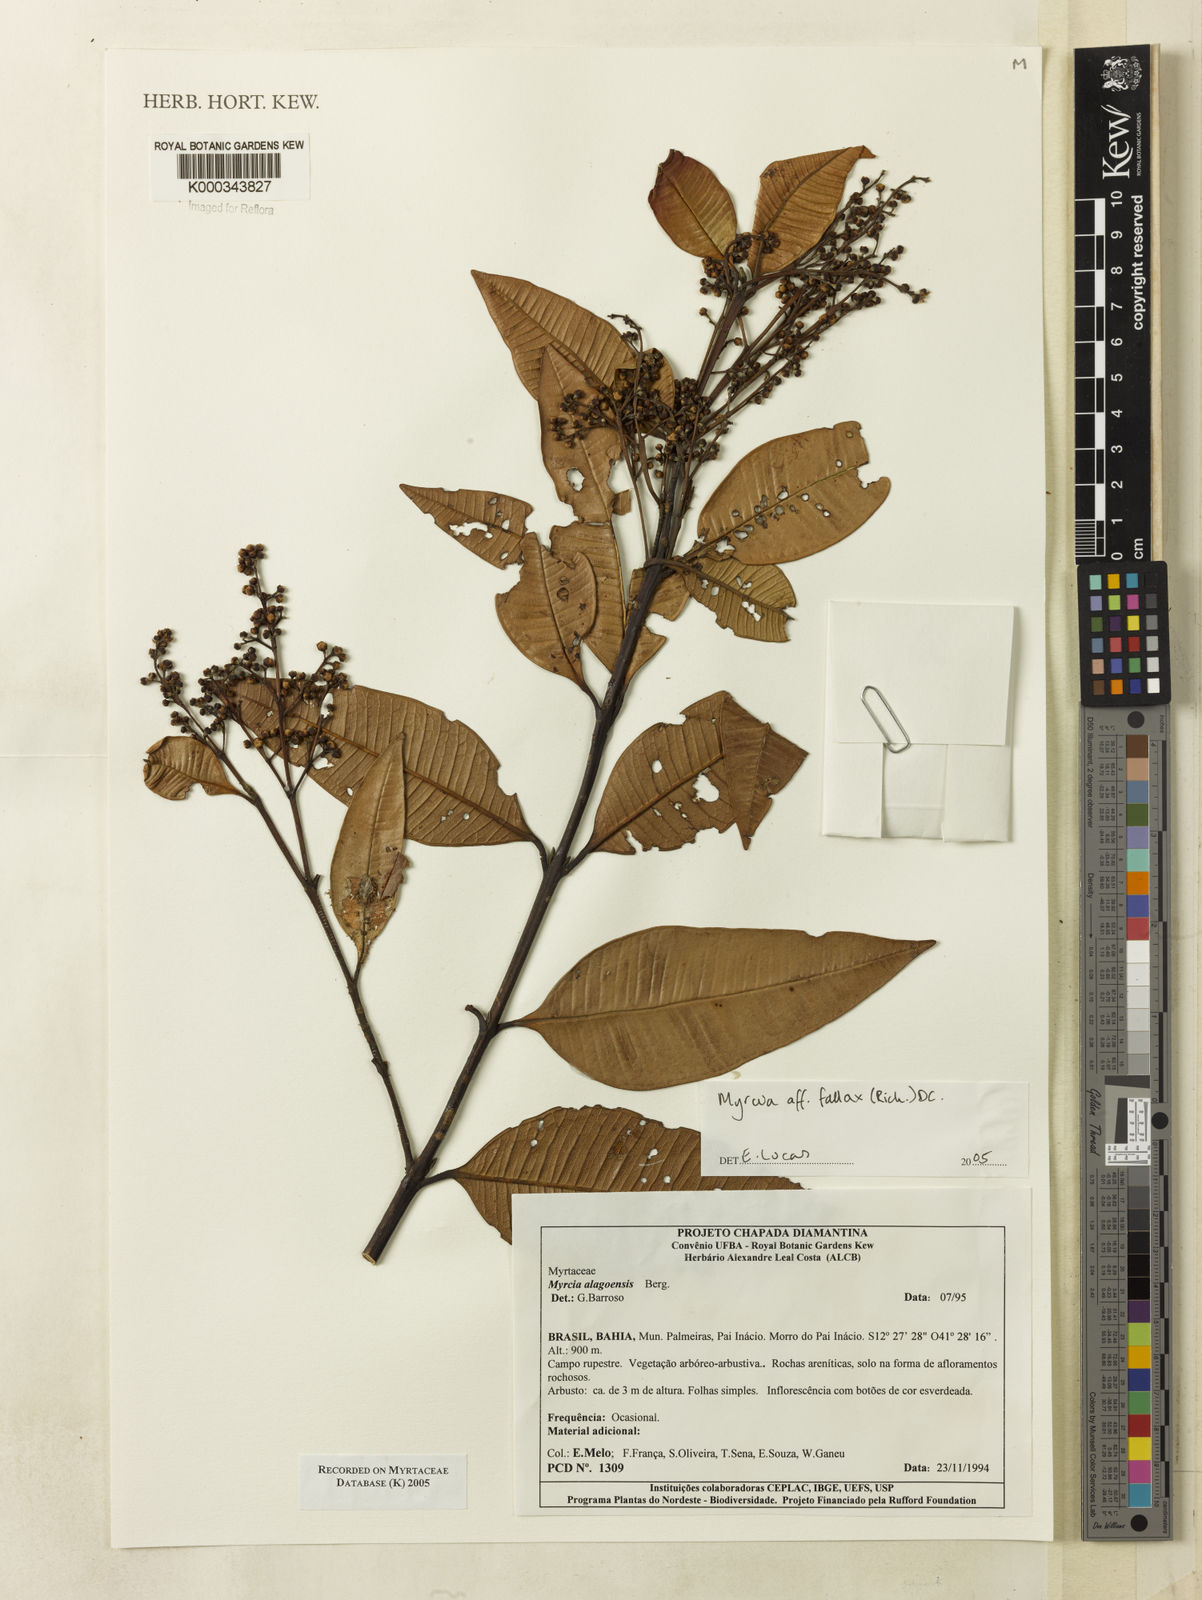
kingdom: Plantae
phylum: Tracheophyta
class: Magnoliopsida
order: Myrtales
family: Myrtaceae
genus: Myrcia
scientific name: Myrcia splendens
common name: Surinam cherry
